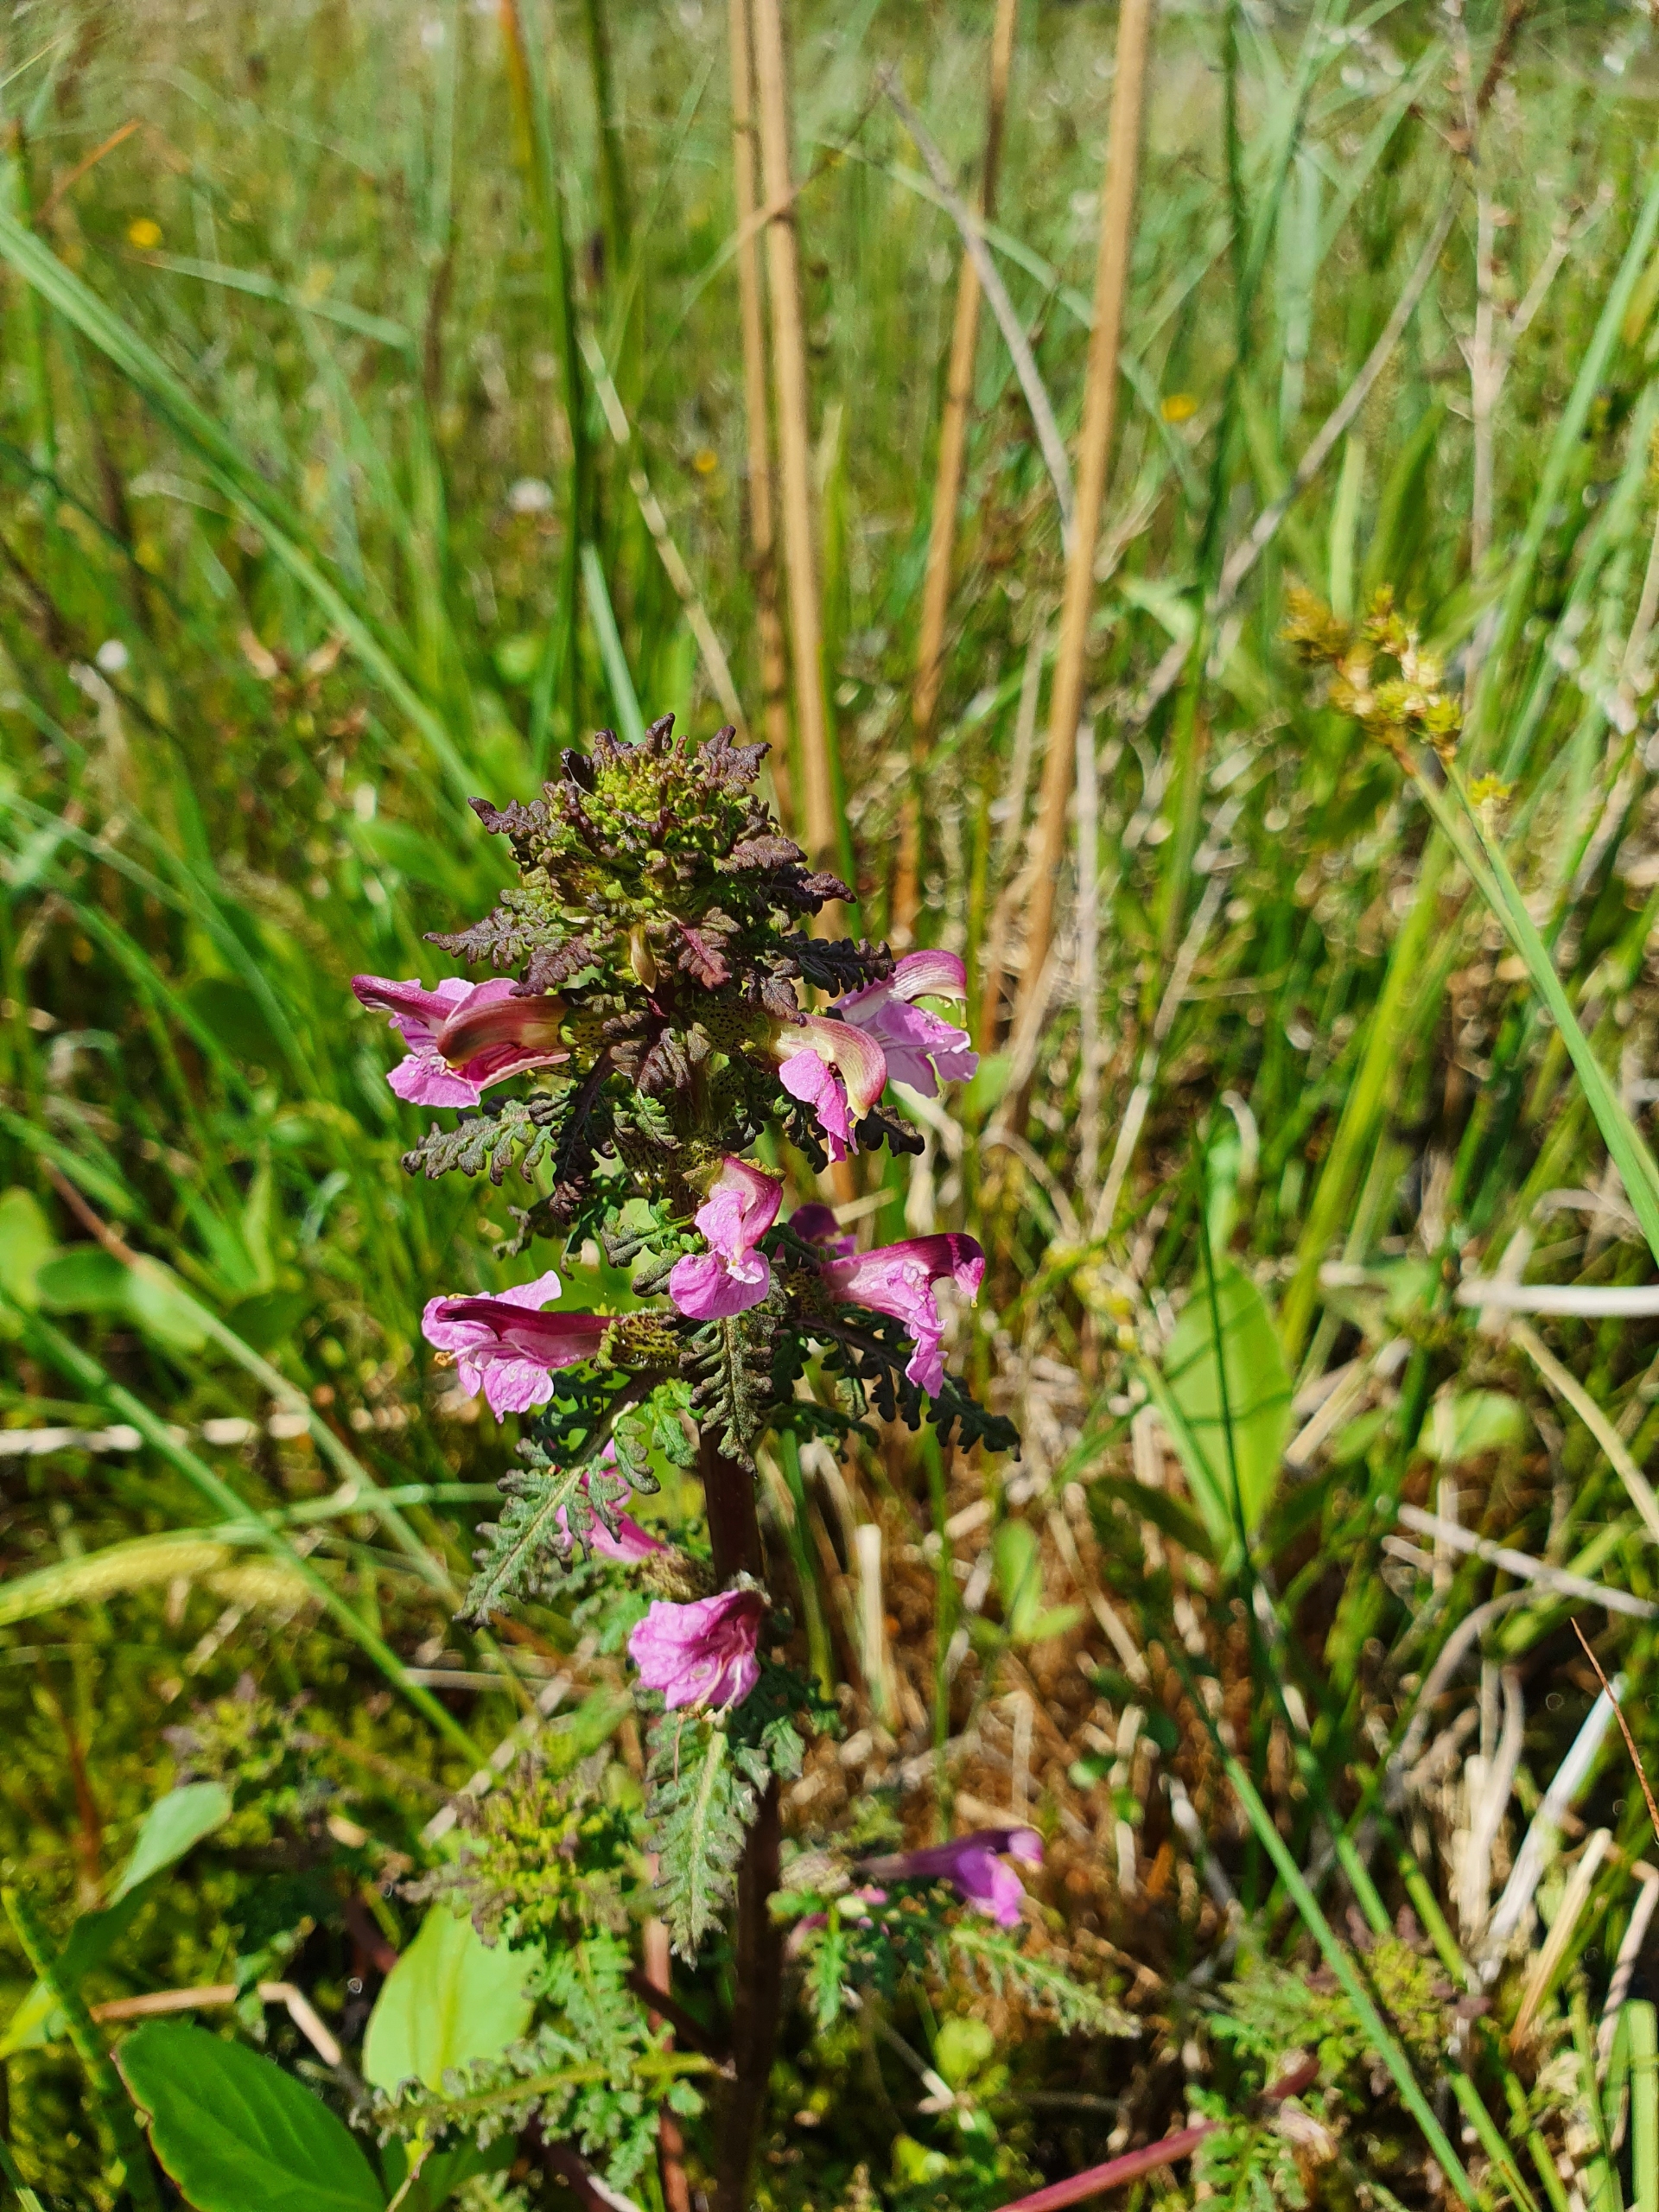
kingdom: Plantae
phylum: Tracheophyta
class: Magnoliopsida
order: Lamiales
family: Orobanchaceae
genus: Pedicularis
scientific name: Pedicularis palustris
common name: Eng-troldurt
